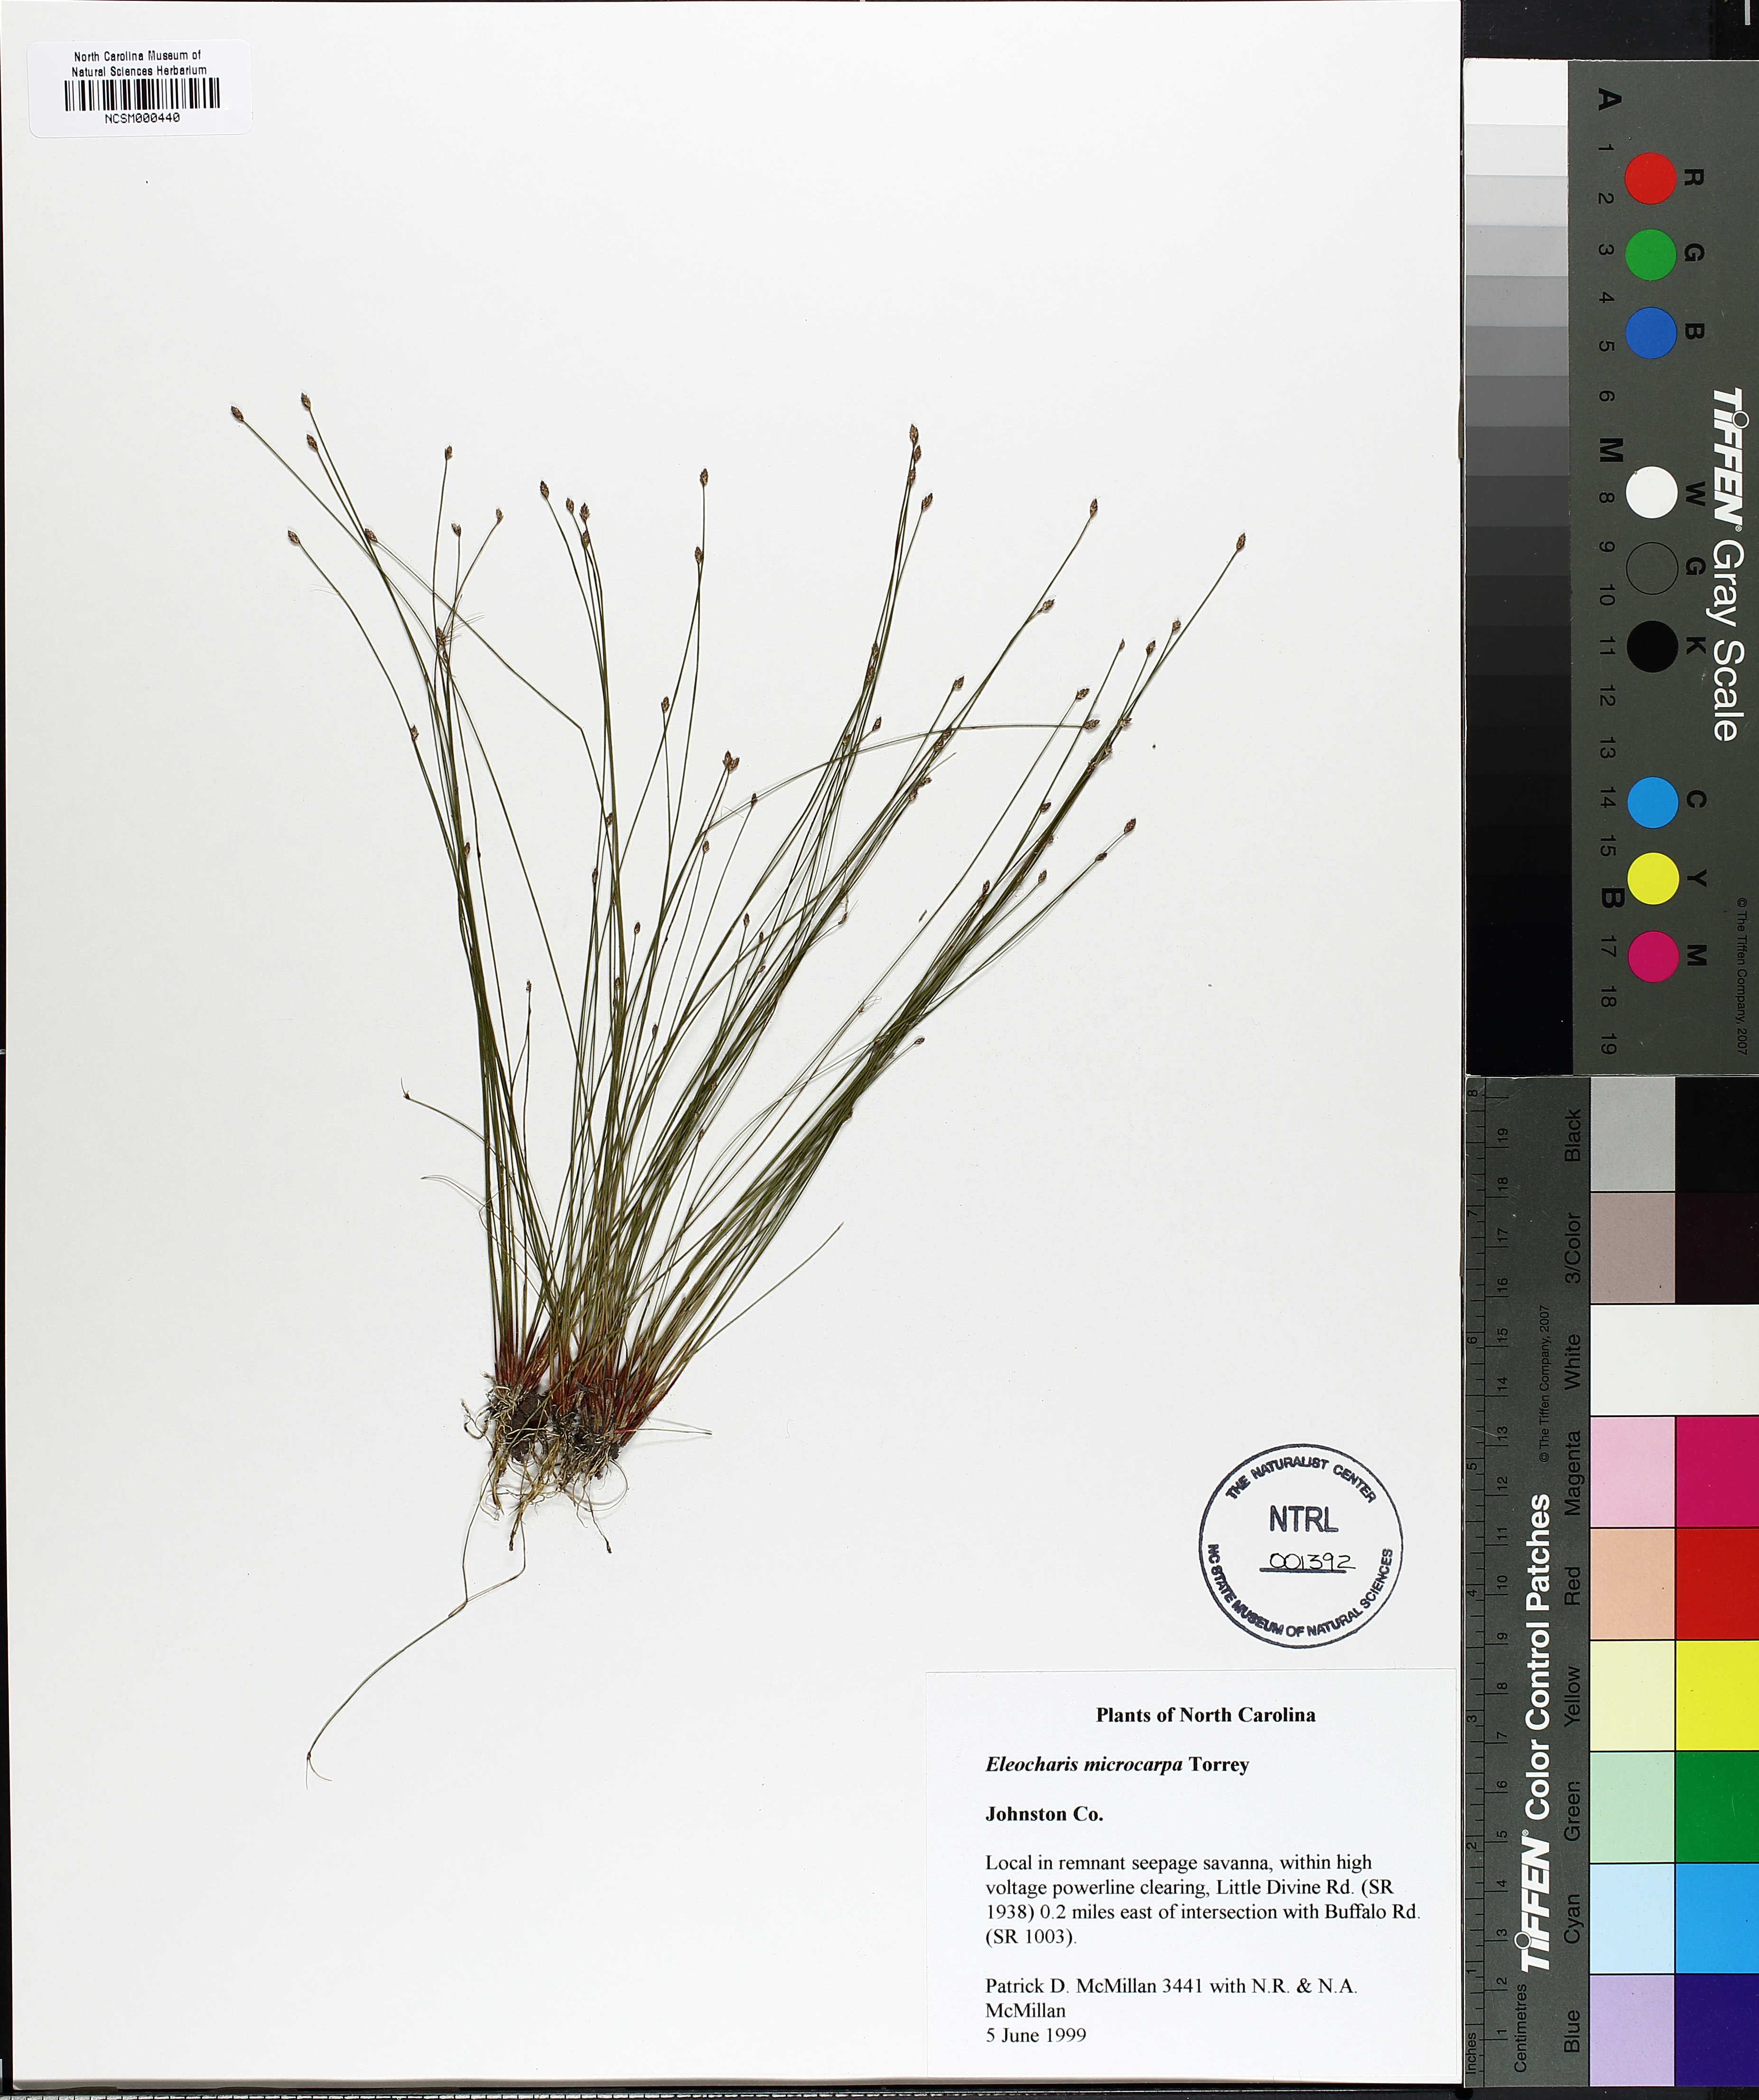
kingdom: Plantae
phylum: Tracheophyta
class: Liliopsida
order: Poales
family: Cyperaceae
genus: Eleocharis
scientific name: Eleocharis microcarpa
